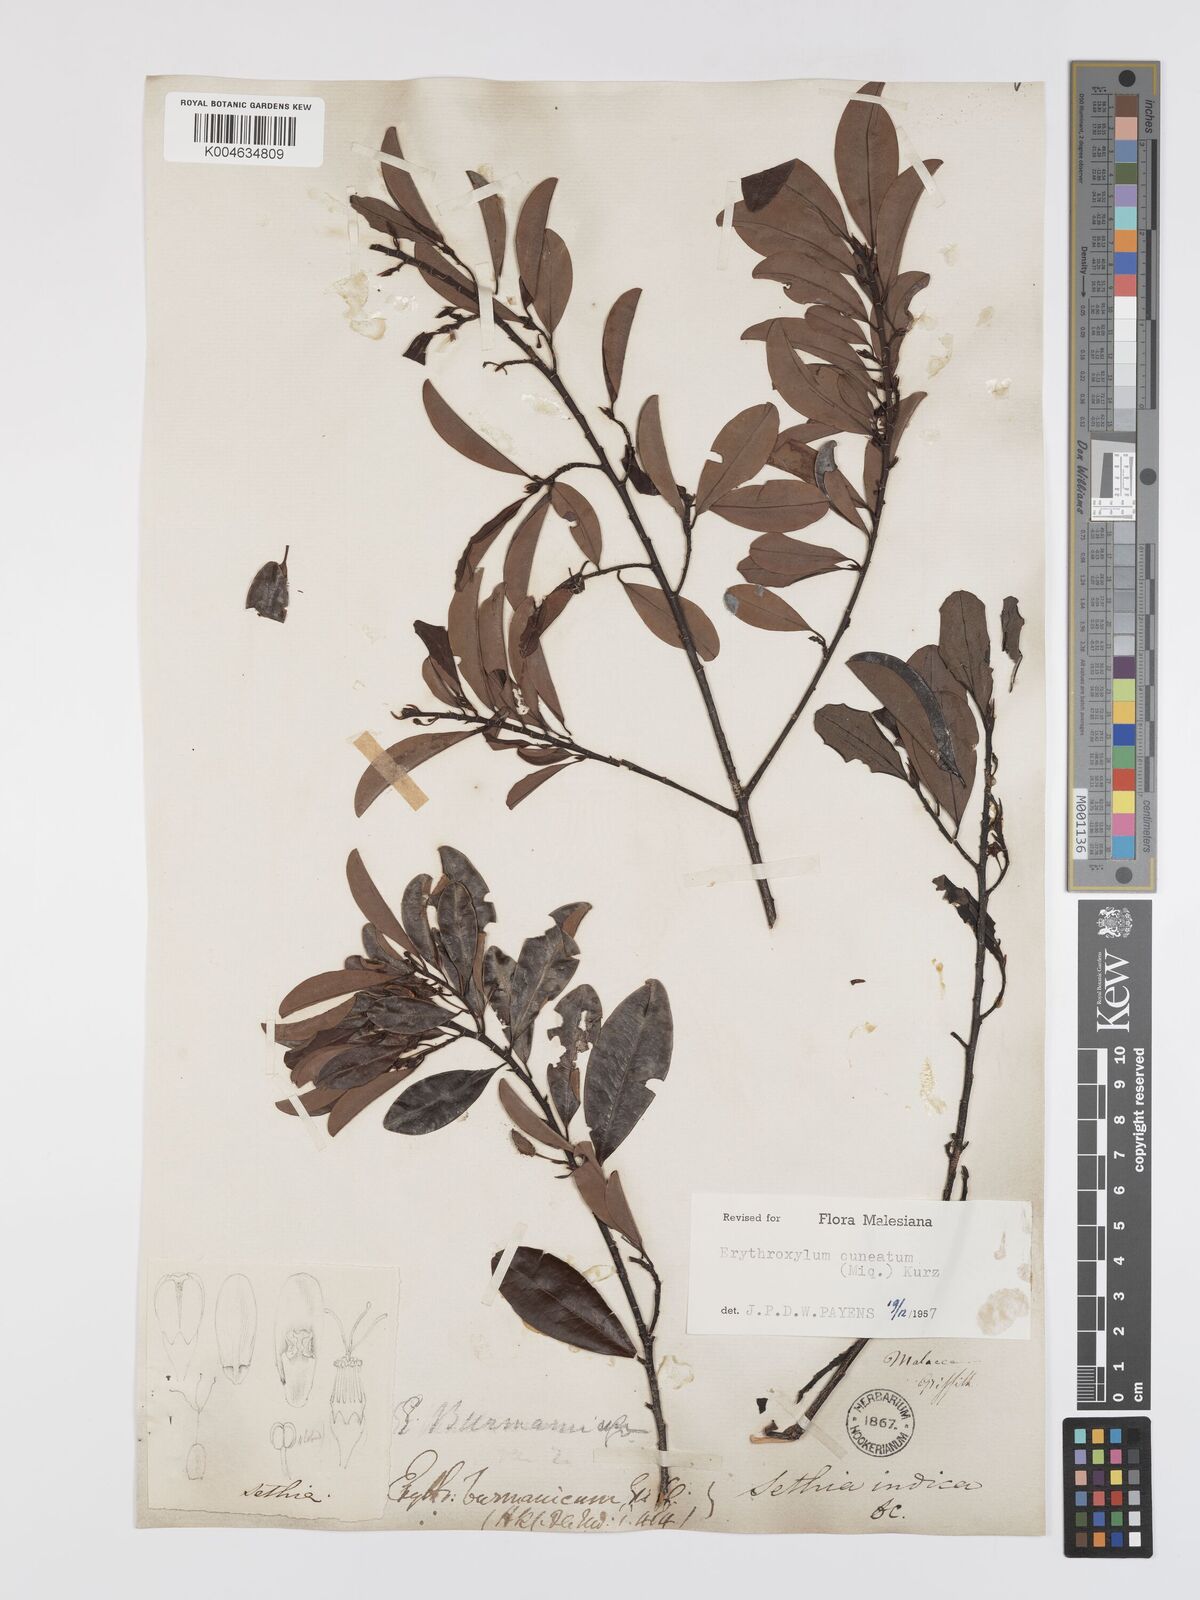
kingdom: Plantae
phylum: Tracheophyta
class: Magnoliopsida
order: Malpighiales
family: Erythroxylaceae
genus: Erythroxylum
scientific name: Erythroxylum cuneatum
